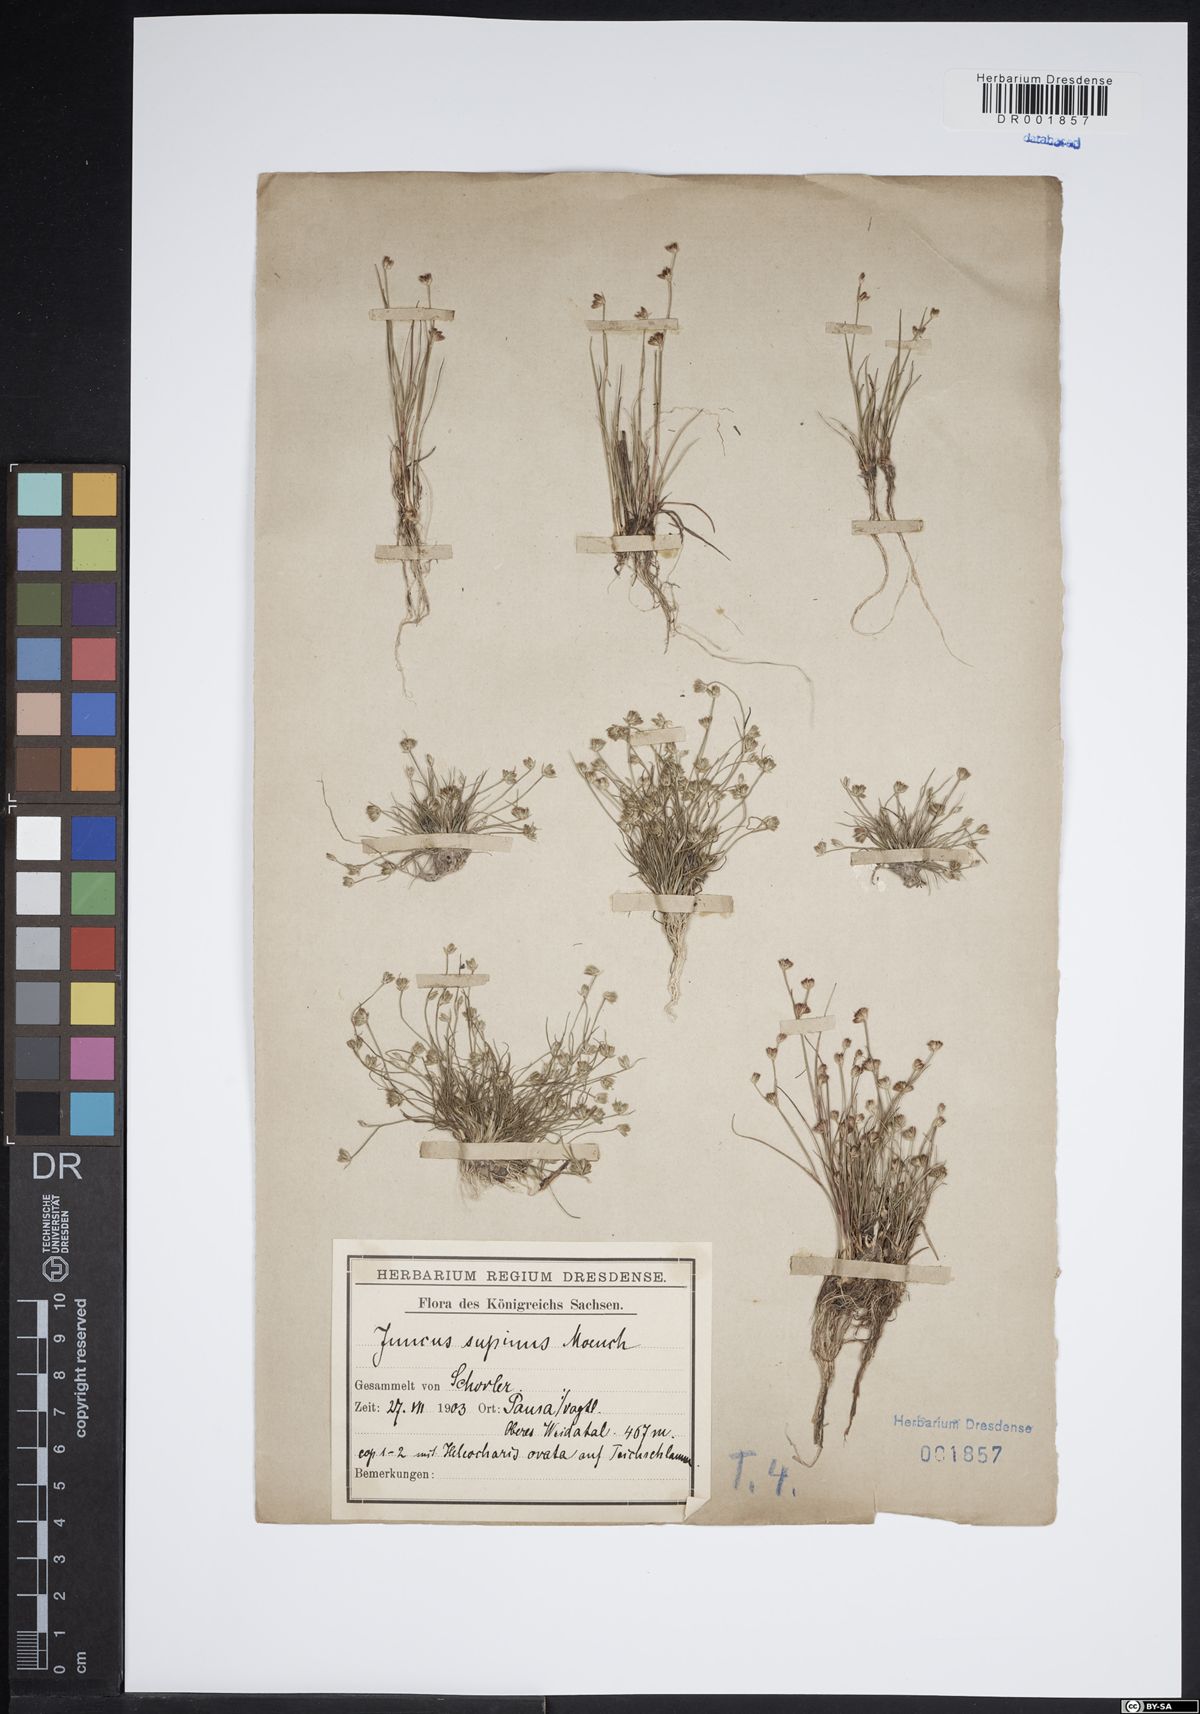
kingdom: Plantae
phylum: Tracheophyta
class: Liliopsida
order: Poales
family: Juncaceae
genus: Juncus
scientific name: Juncus bulbosus
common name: Bulbous rush
